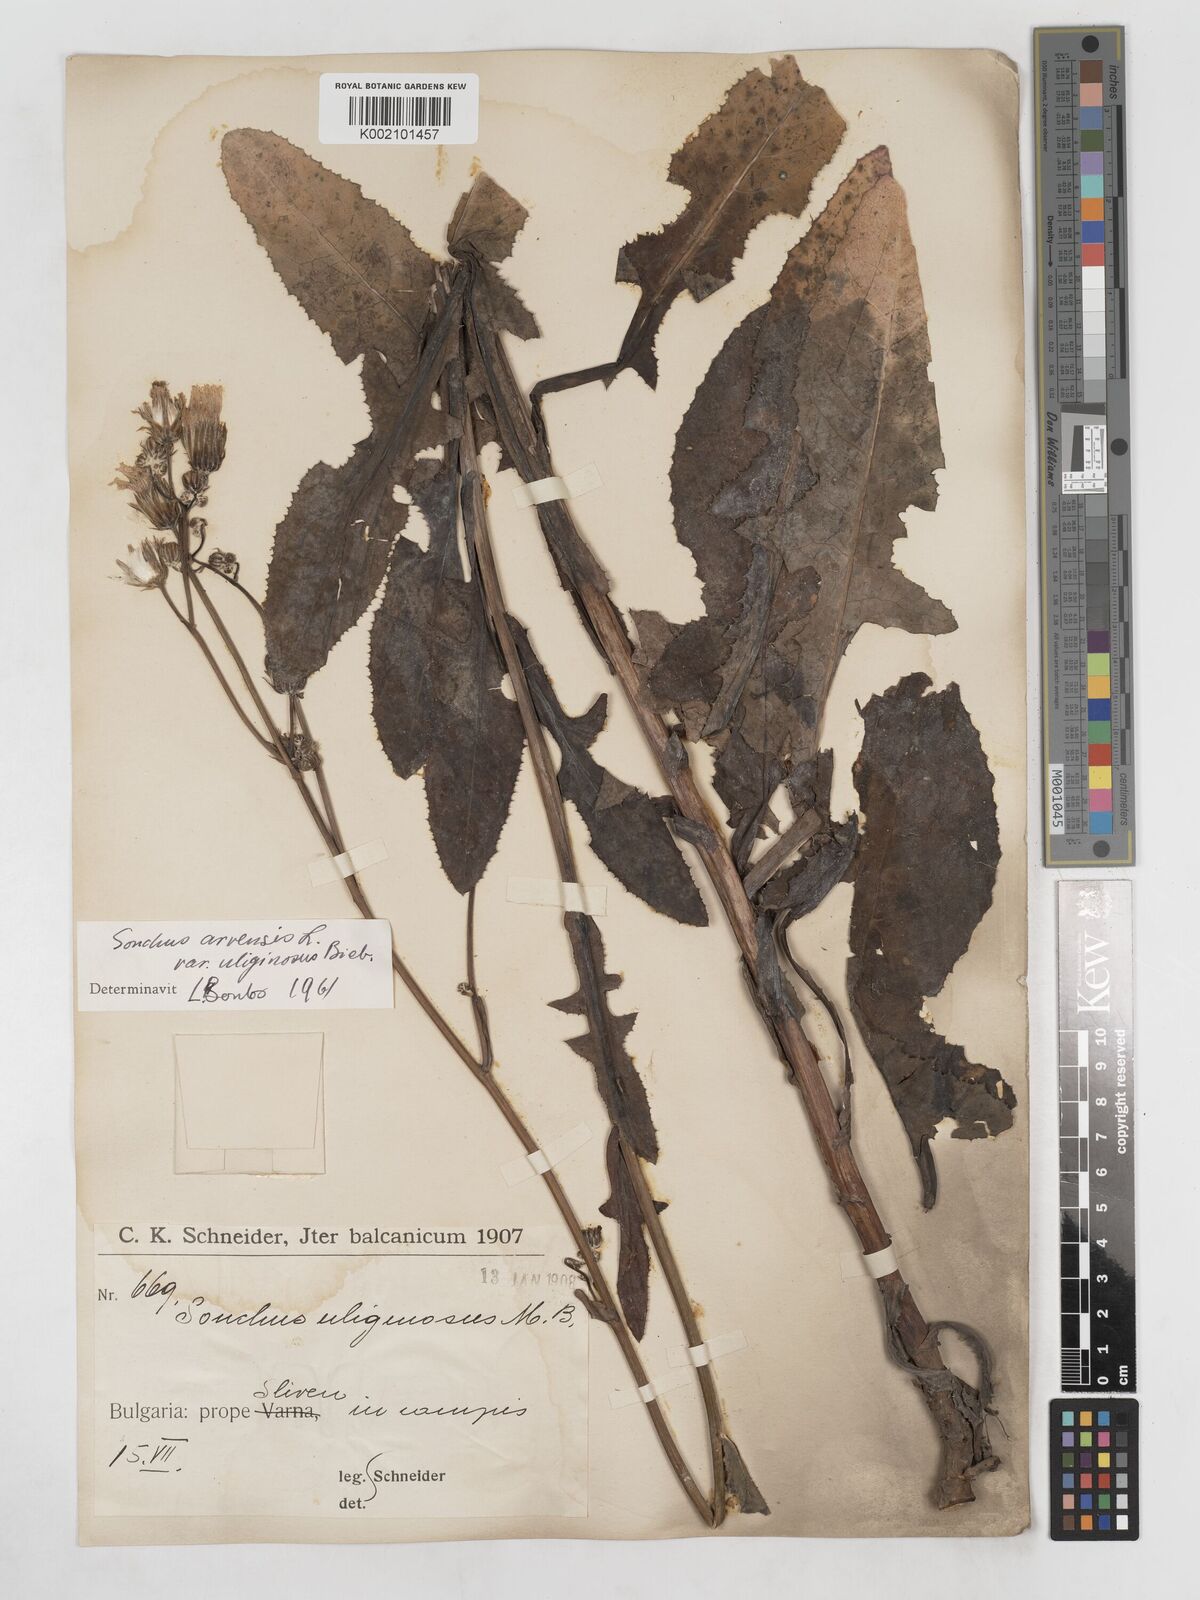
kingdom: Plantae
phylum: Tracheophyta
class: Magnoliopsida
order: Asterales
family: Asteraceae
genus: Sonchus
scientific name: Sonchus arvensis
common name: Perennial sow-thistle
